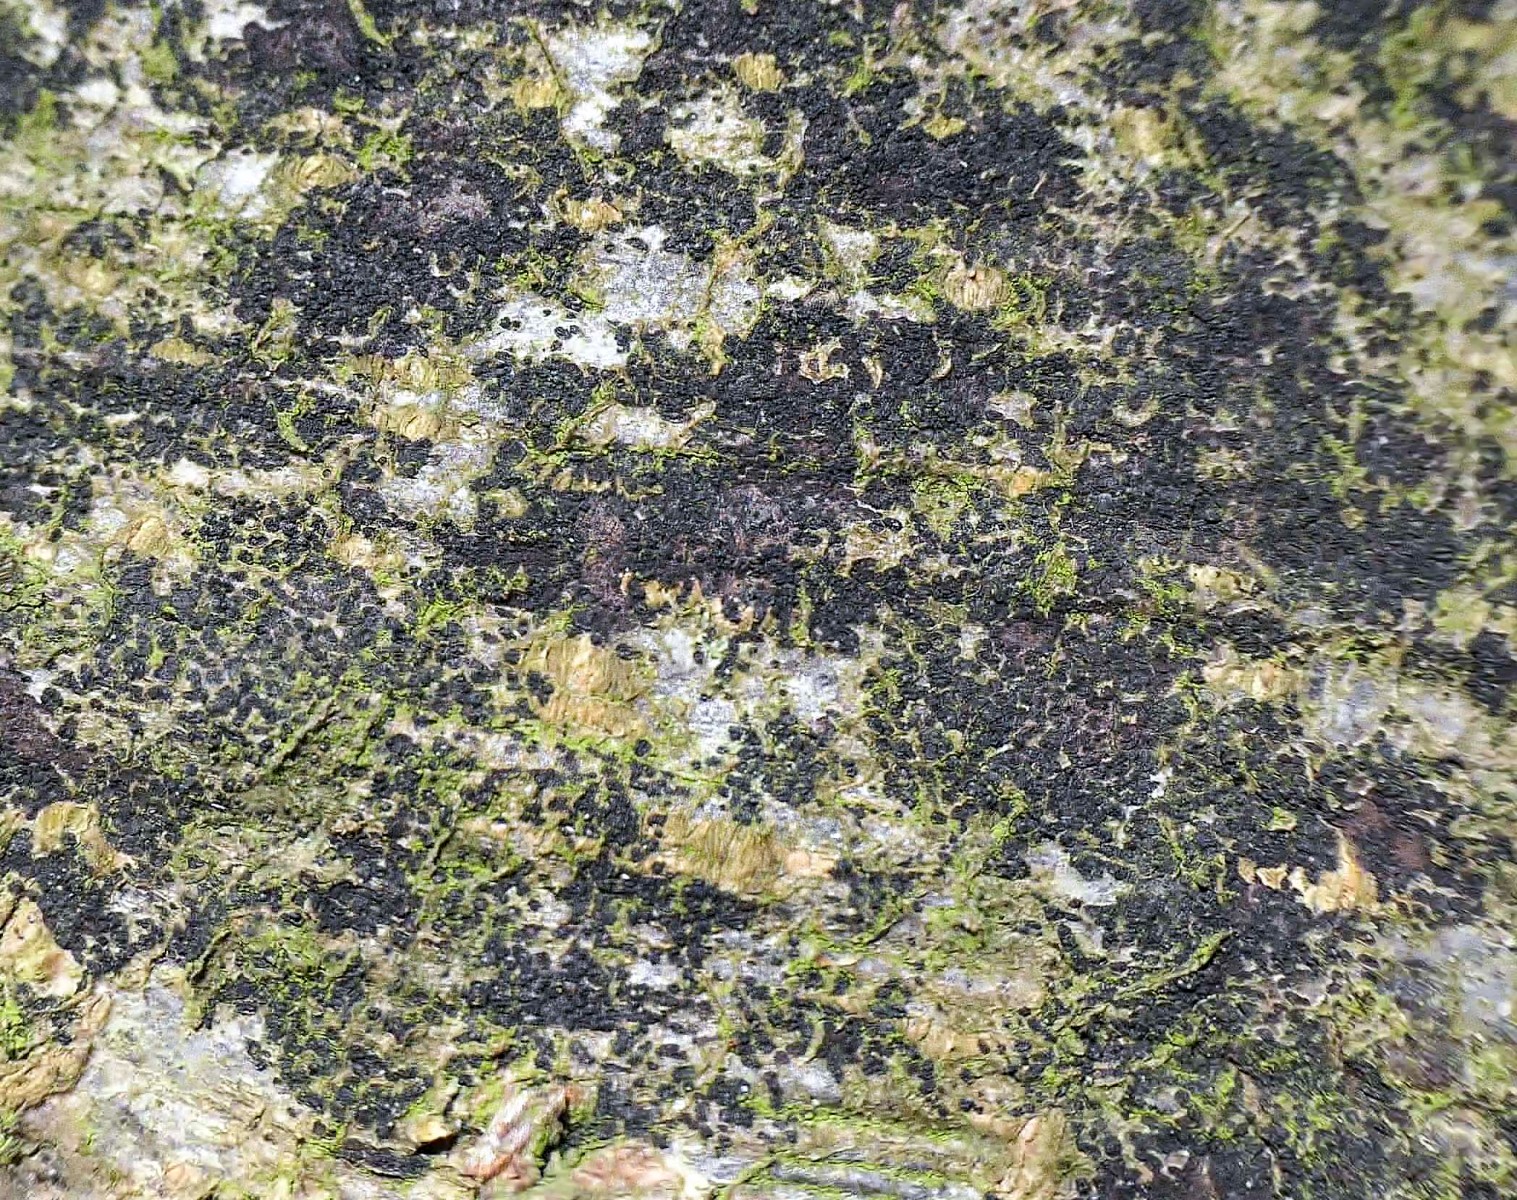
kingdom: Fungi
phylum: Ascomycota
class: Leotiomycetes
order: Rhytismatales
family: Ascodichaenaceae
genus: Ascodichaena
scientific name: Ascodichaena rugosa
